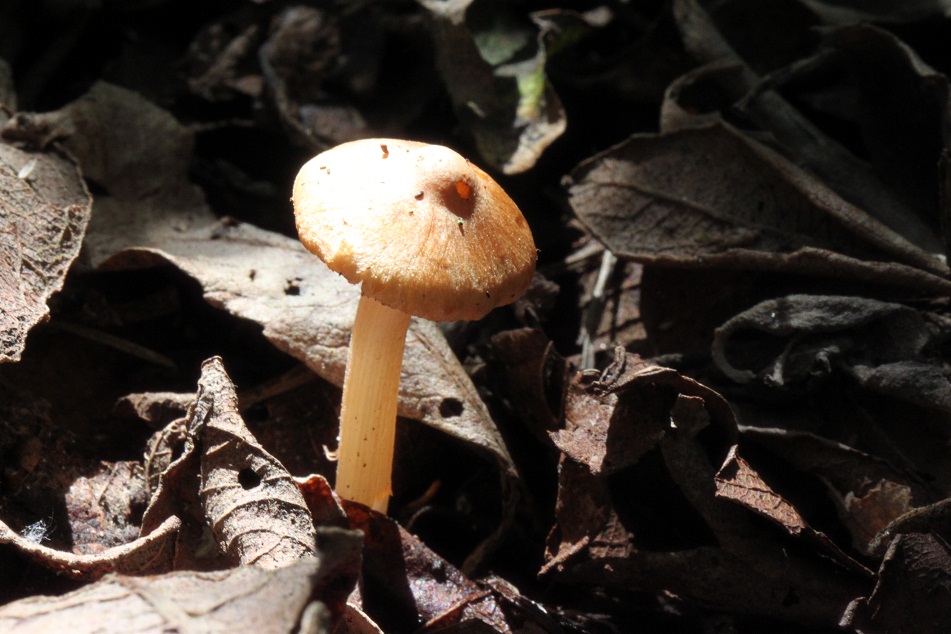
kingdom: Fungi
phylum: Basidiomycota
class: Agaricomycetes
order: Agaricales
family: Inocybaceae
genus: Inocybe
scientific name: Inocybe godeyi
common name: orangerødmende trævlhat
